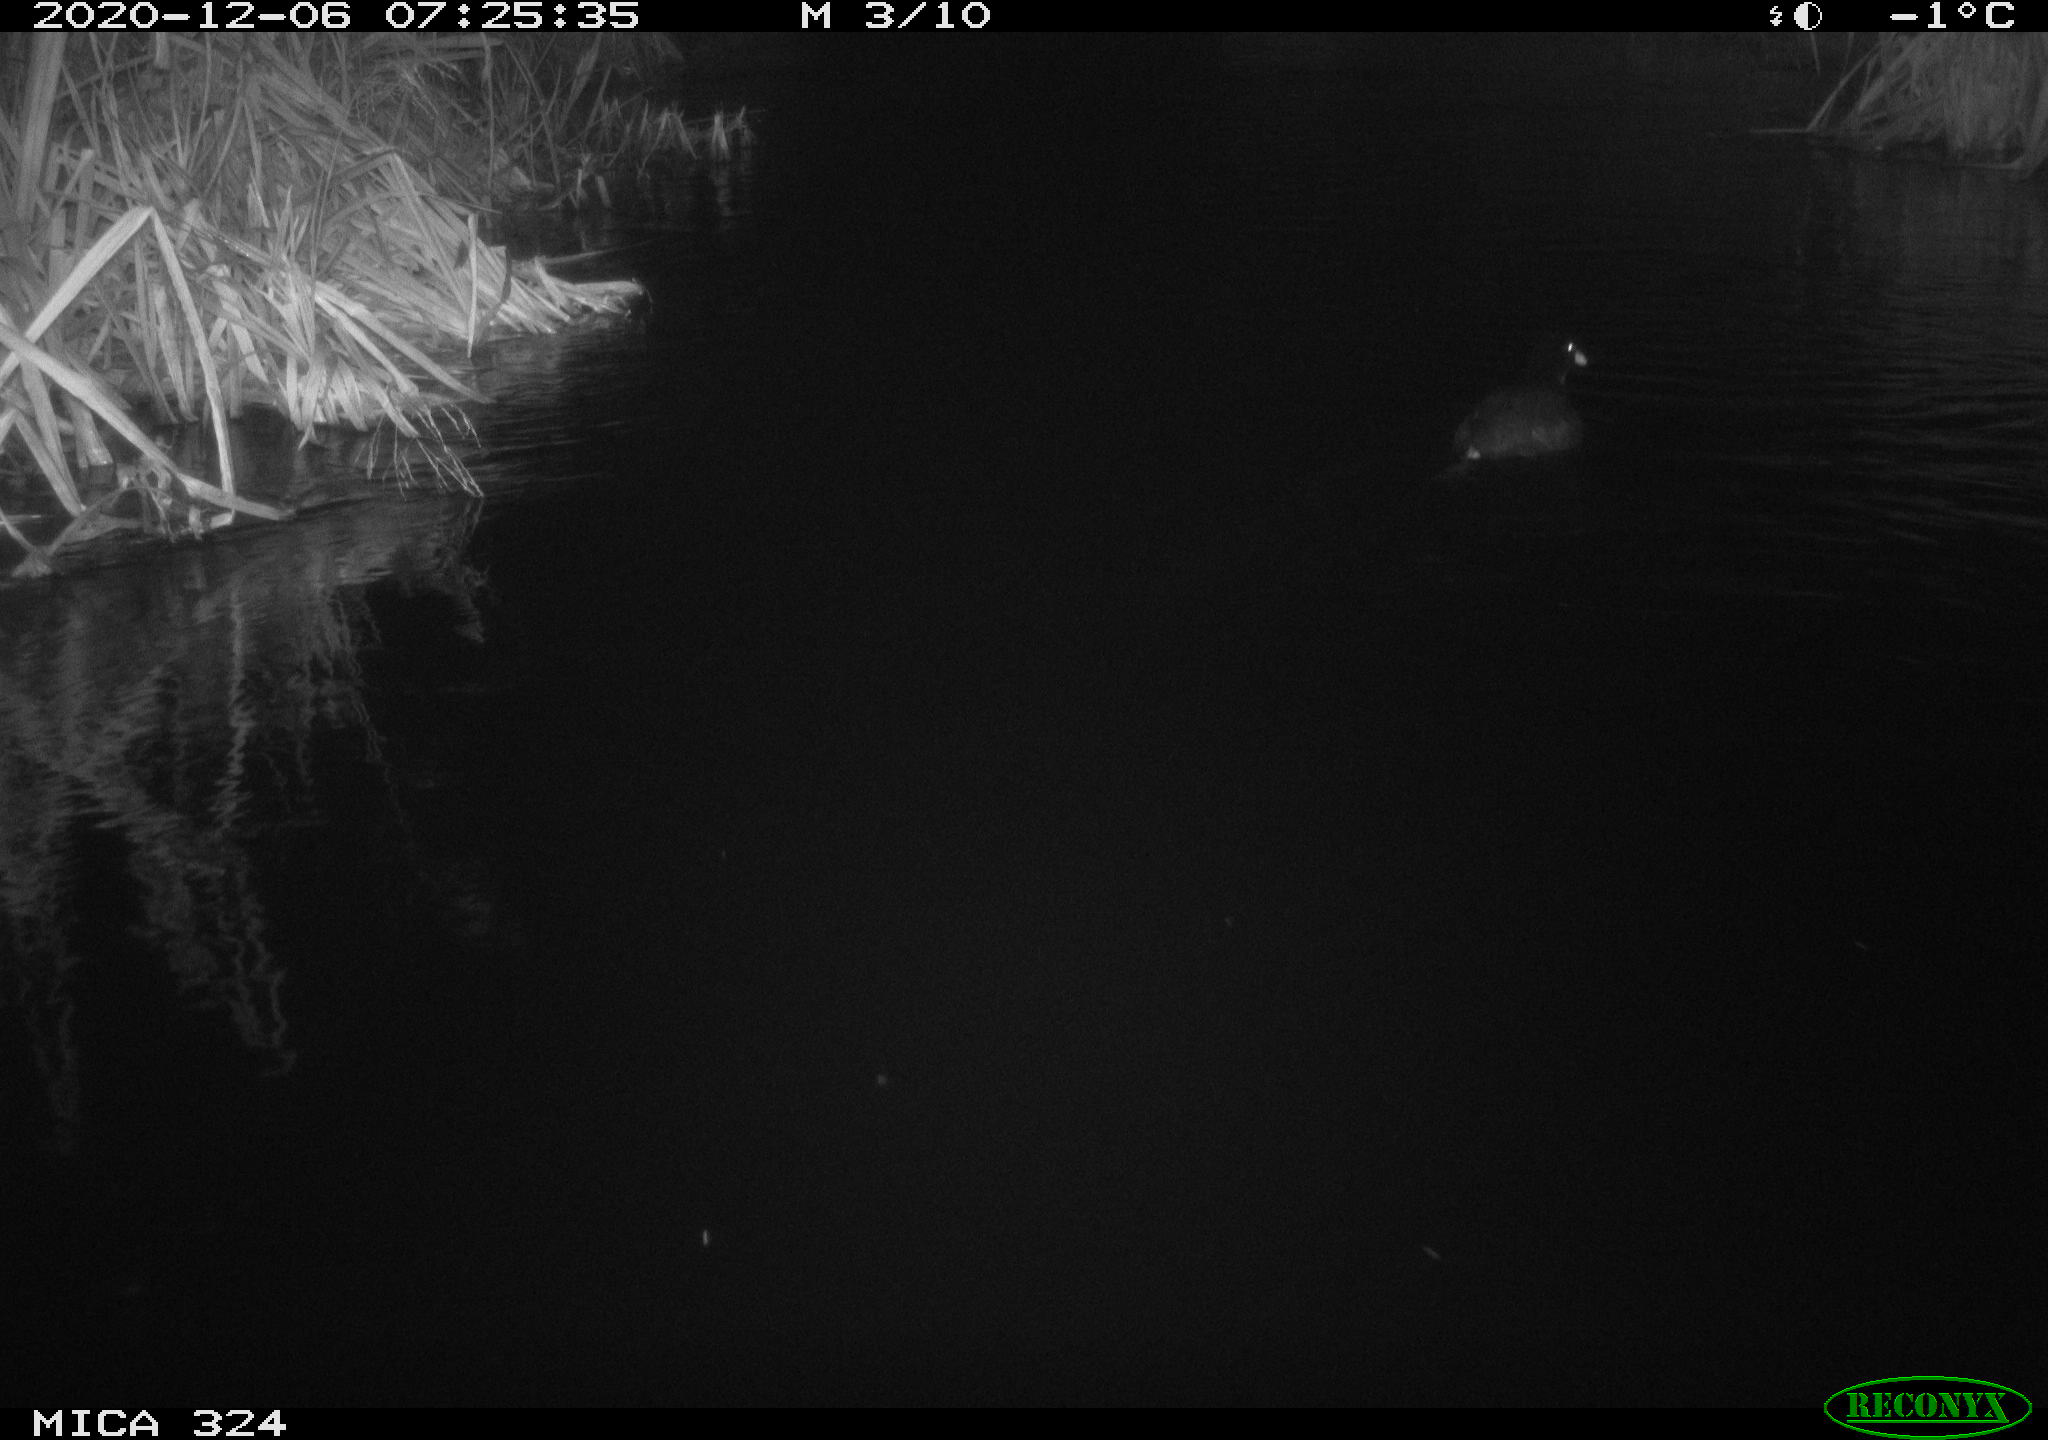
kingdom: Animalia
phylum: Chordata
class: Aves
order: Gruiformes
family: Rallidae
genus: Fulica
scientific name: Fulica atra
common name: Eurasian coot
